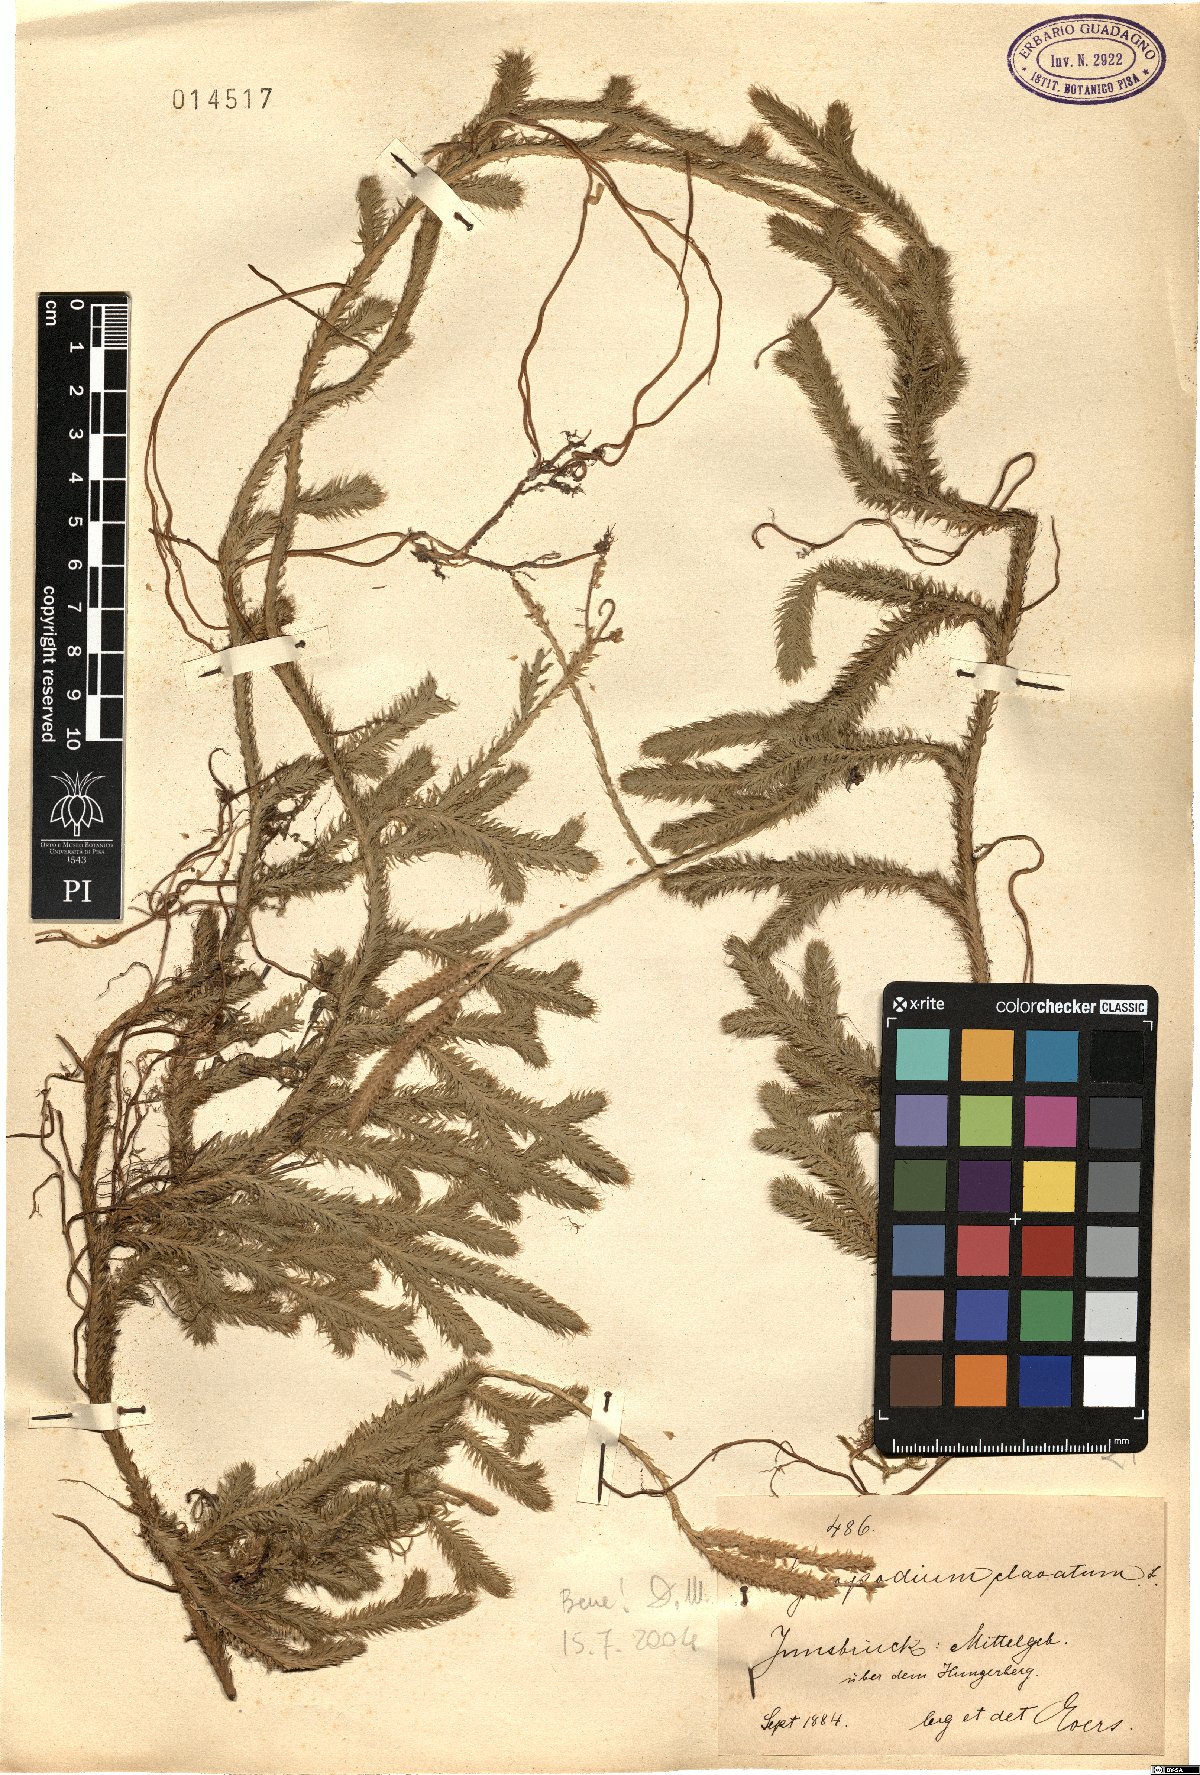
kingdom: Plantae
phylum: Tracheophyta
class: Lycopodiopsida
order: Lycopodiales
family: Lycopodiaceae
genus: Lycopodium
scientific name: Lycopodium clavatum
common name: Stag's-horn clubmoss
